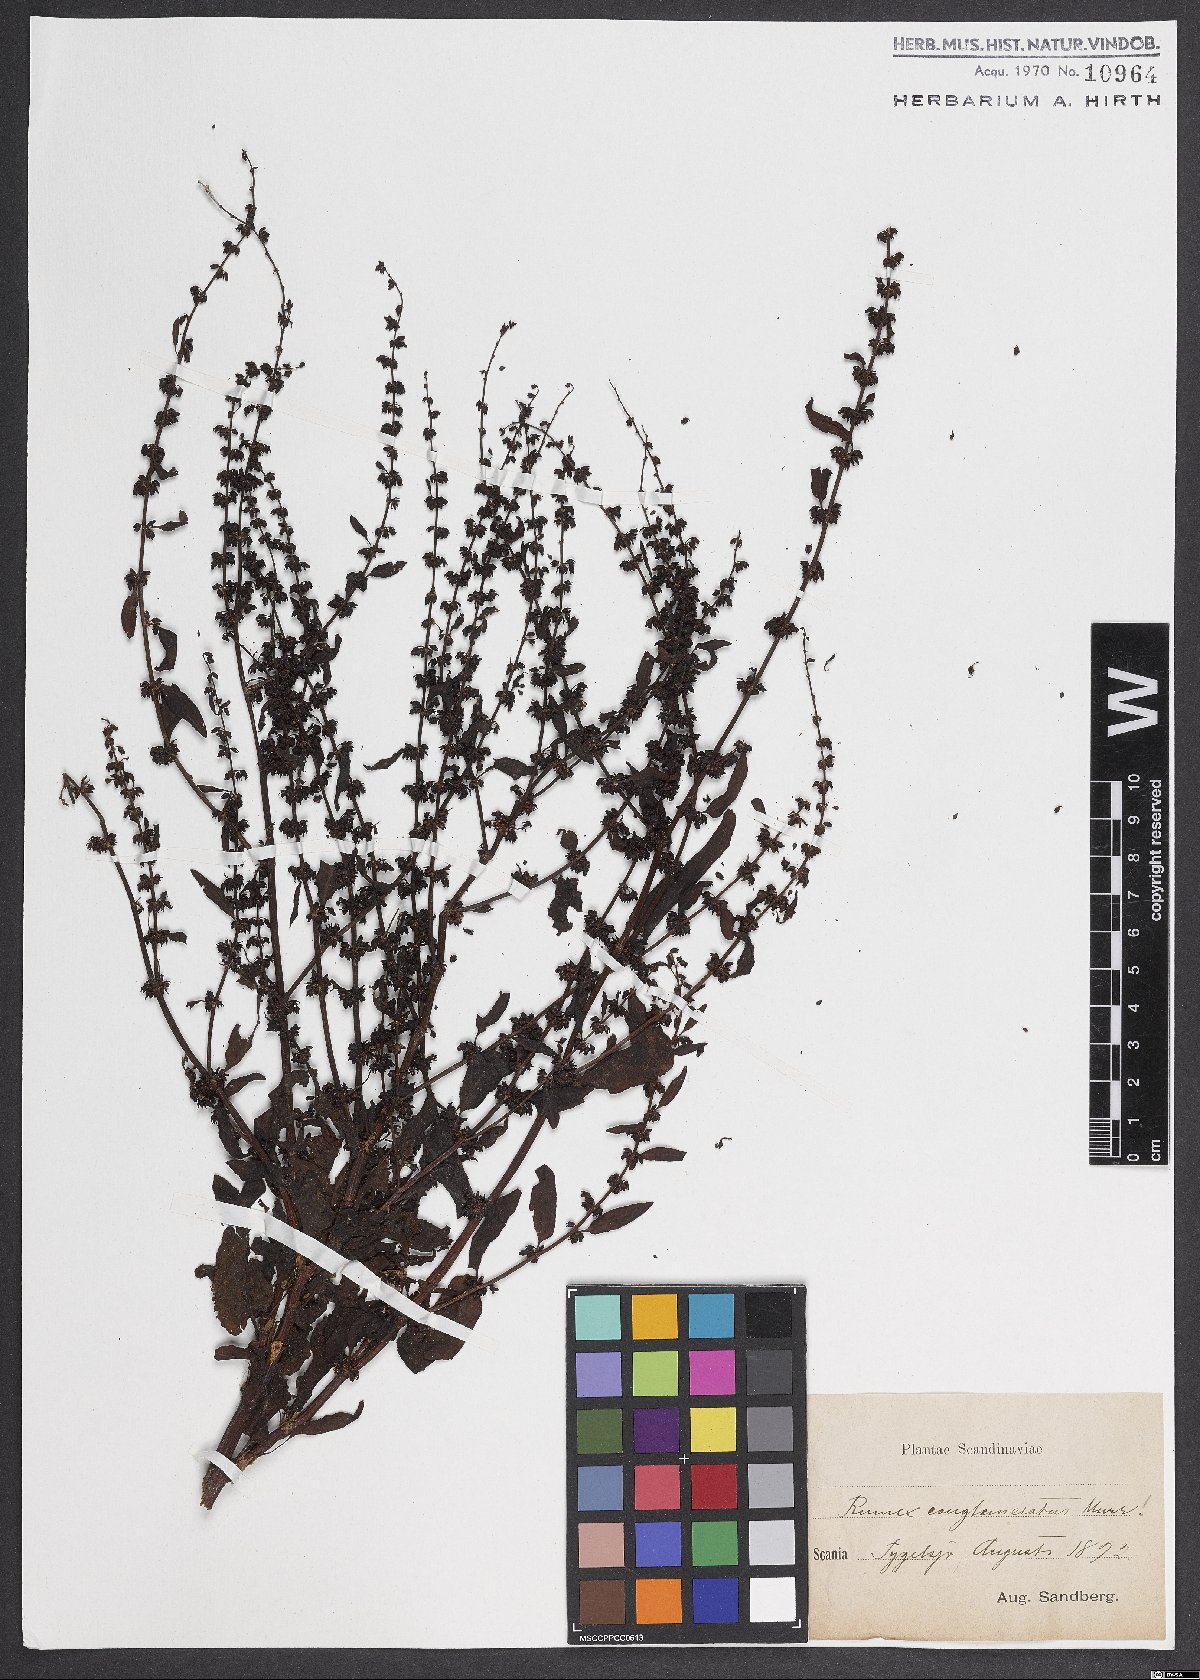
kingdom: Plantae
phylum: Tracheophyta
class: Magnoliopsida
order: Caryophyllales
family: Polygonaceae
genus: Rumex
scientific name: Rumex conglomeratus
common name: Clustered dock
